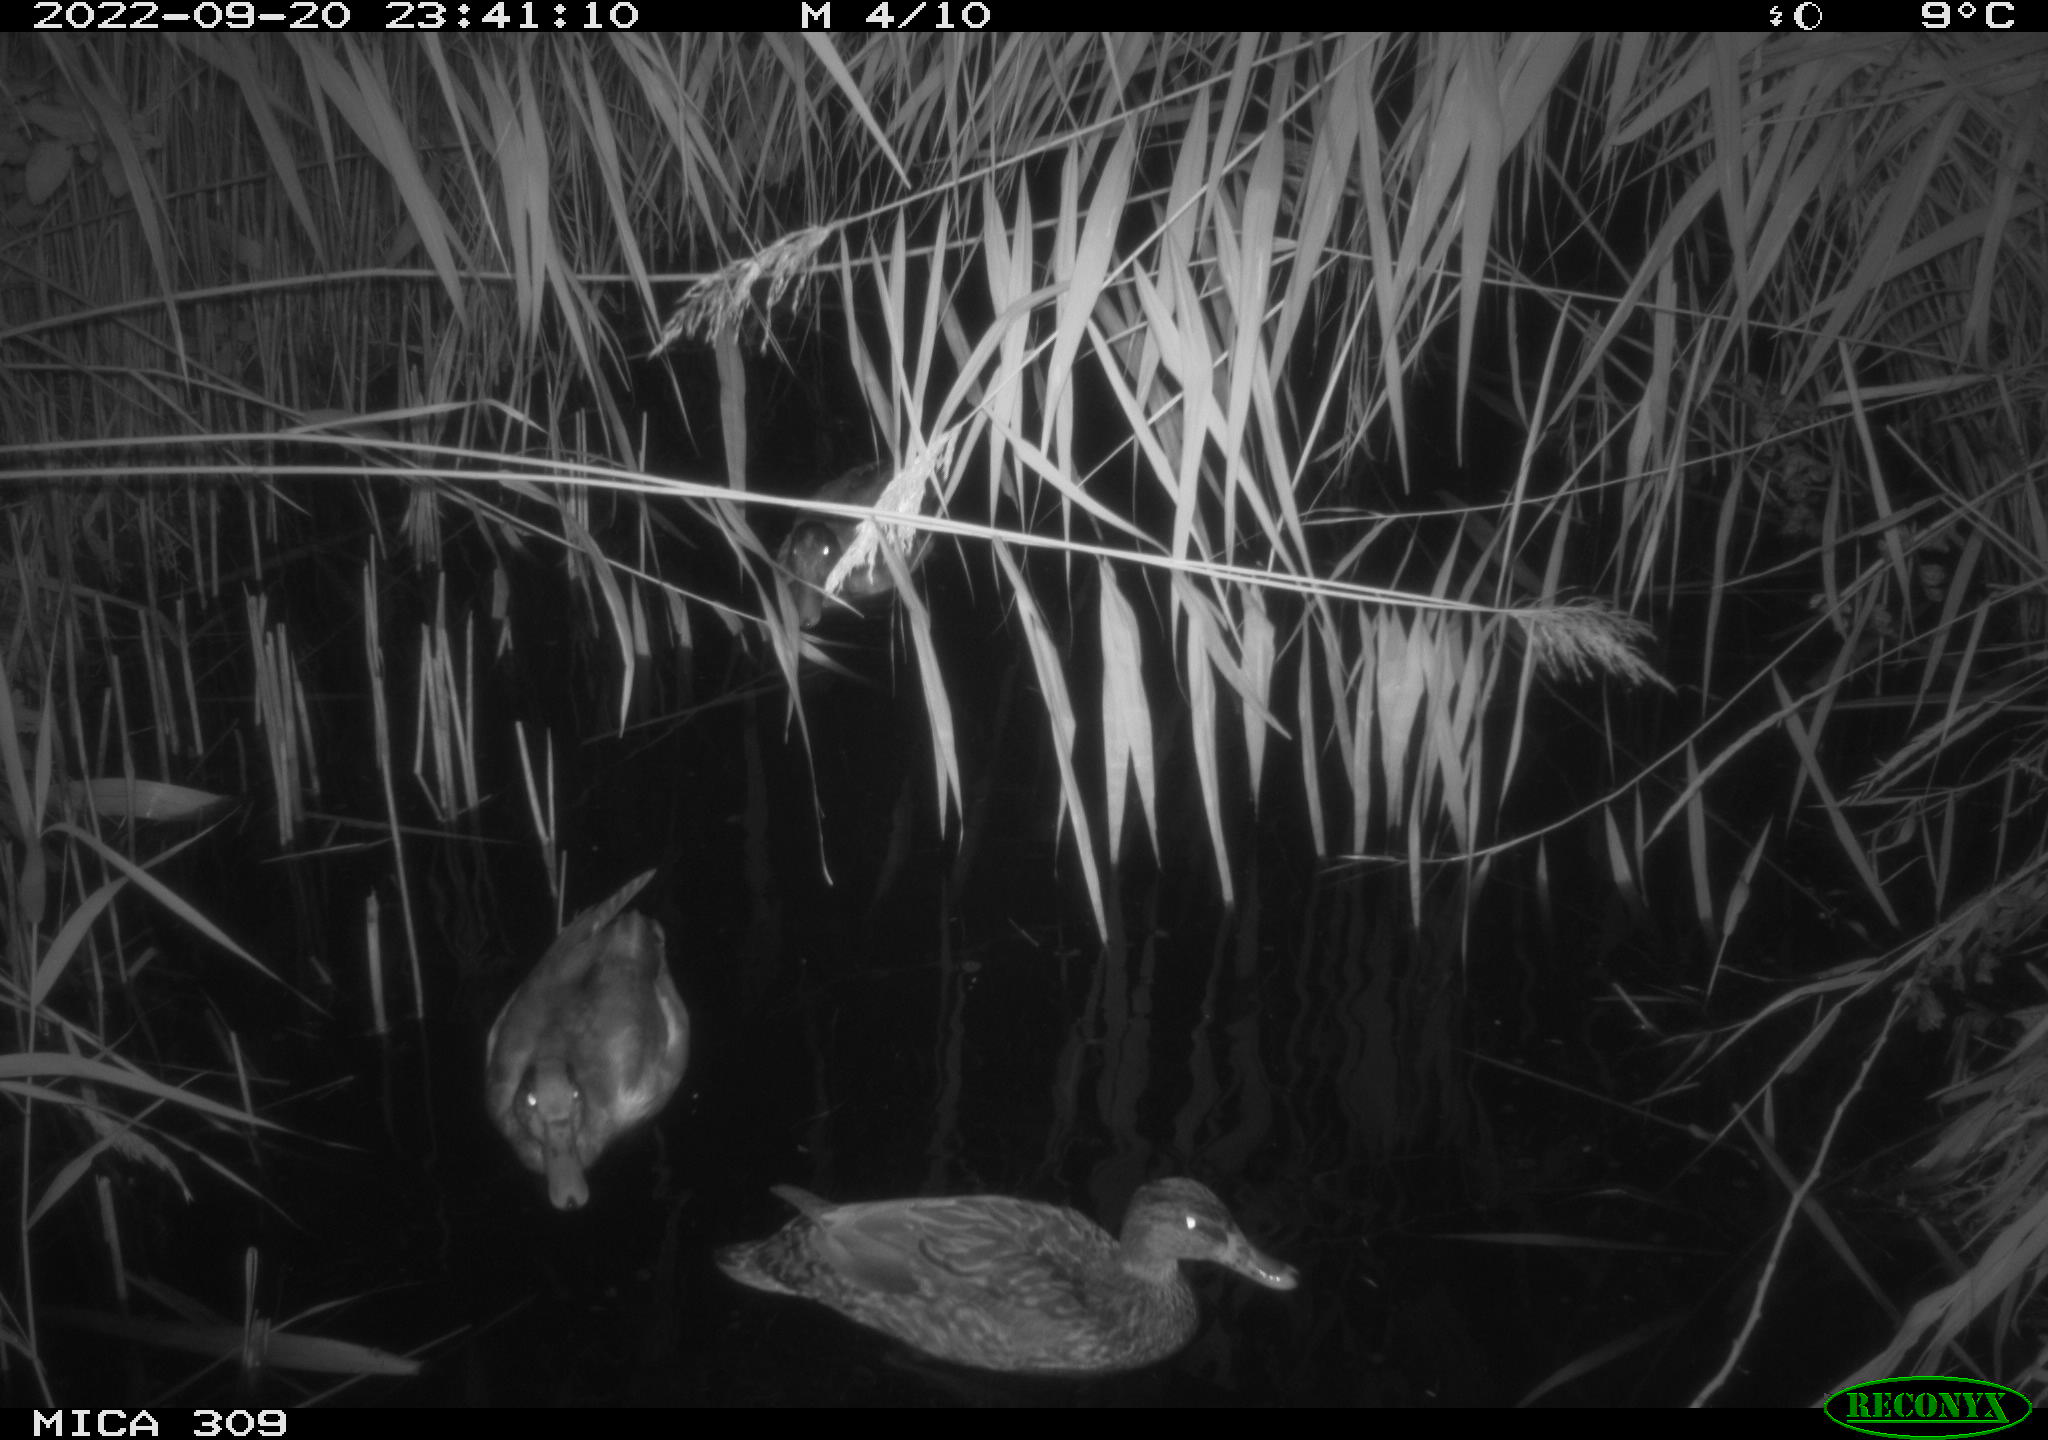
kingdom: Animalia
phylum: Chordata
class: Aves
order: Anseriformes
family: Anatidae
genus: Anas
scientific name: Anas
